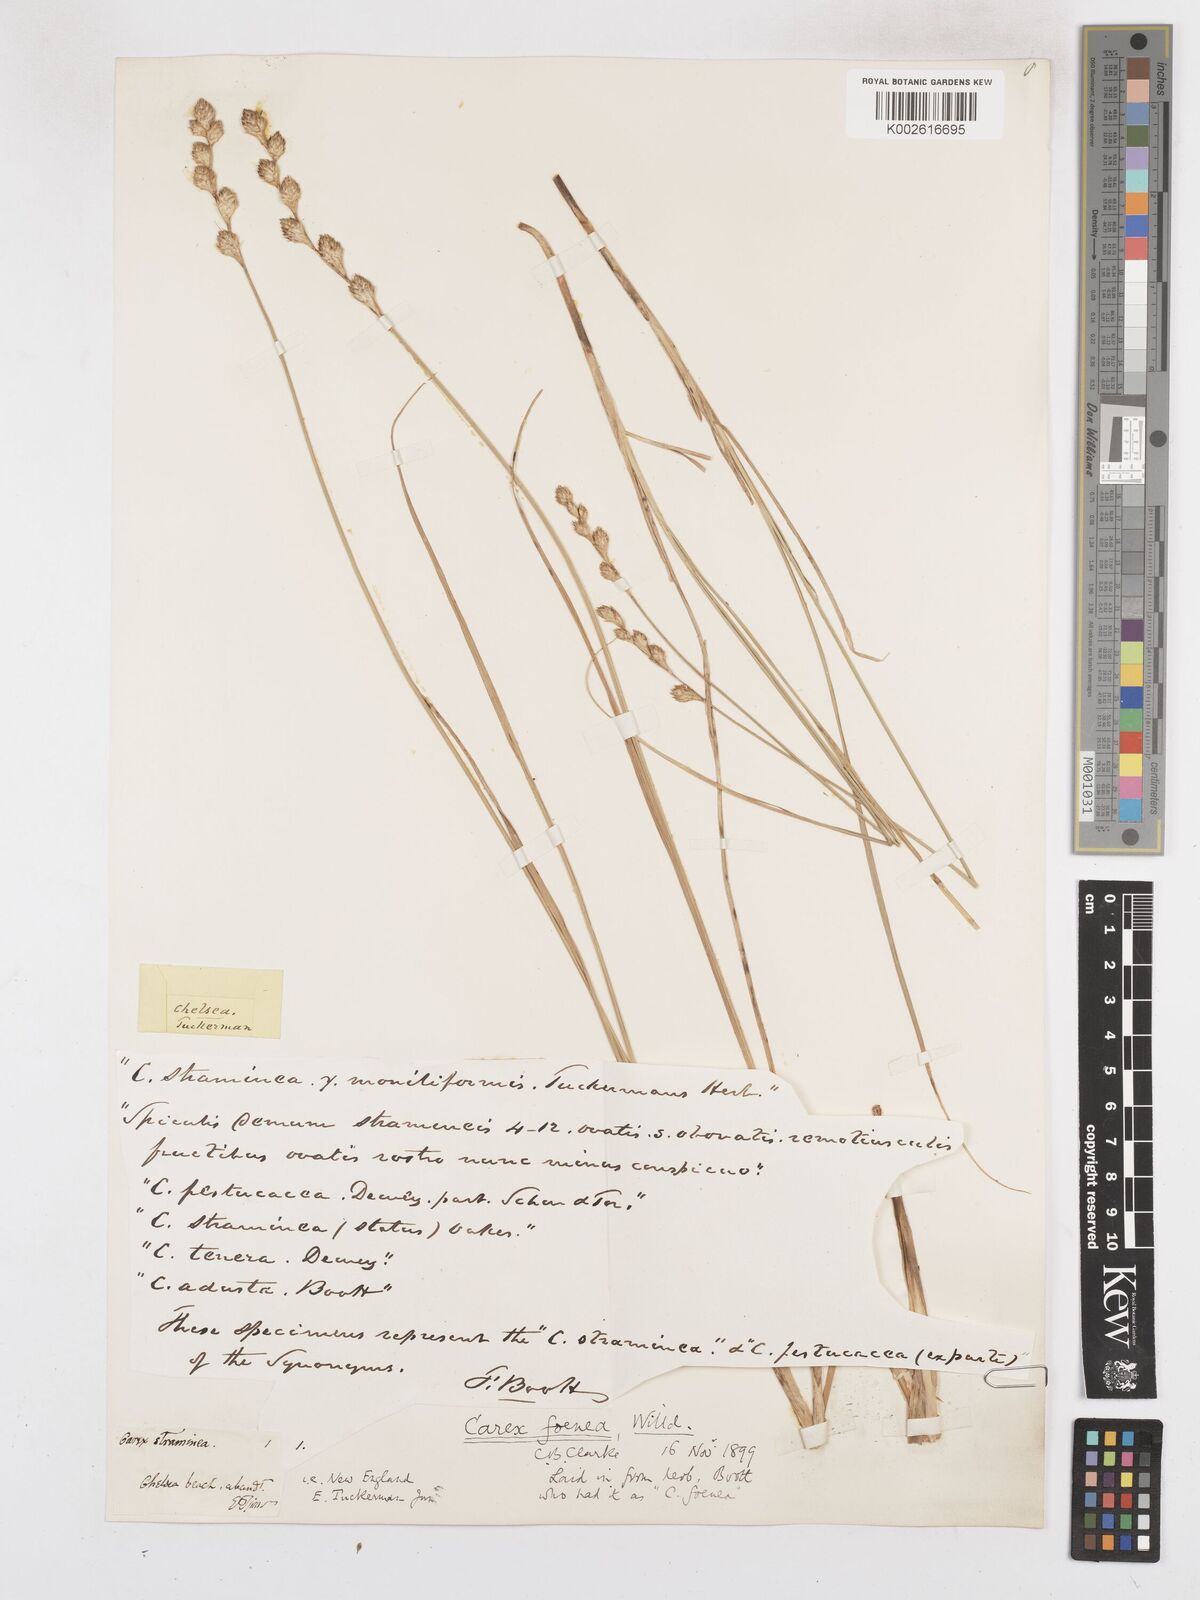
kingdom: Plantae
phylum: Tracheophyta
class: Liliopsida
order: Poales
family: Cyperaceae
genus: Carex
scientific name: Carex argyrantha
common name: Silvery-flowered sedge
